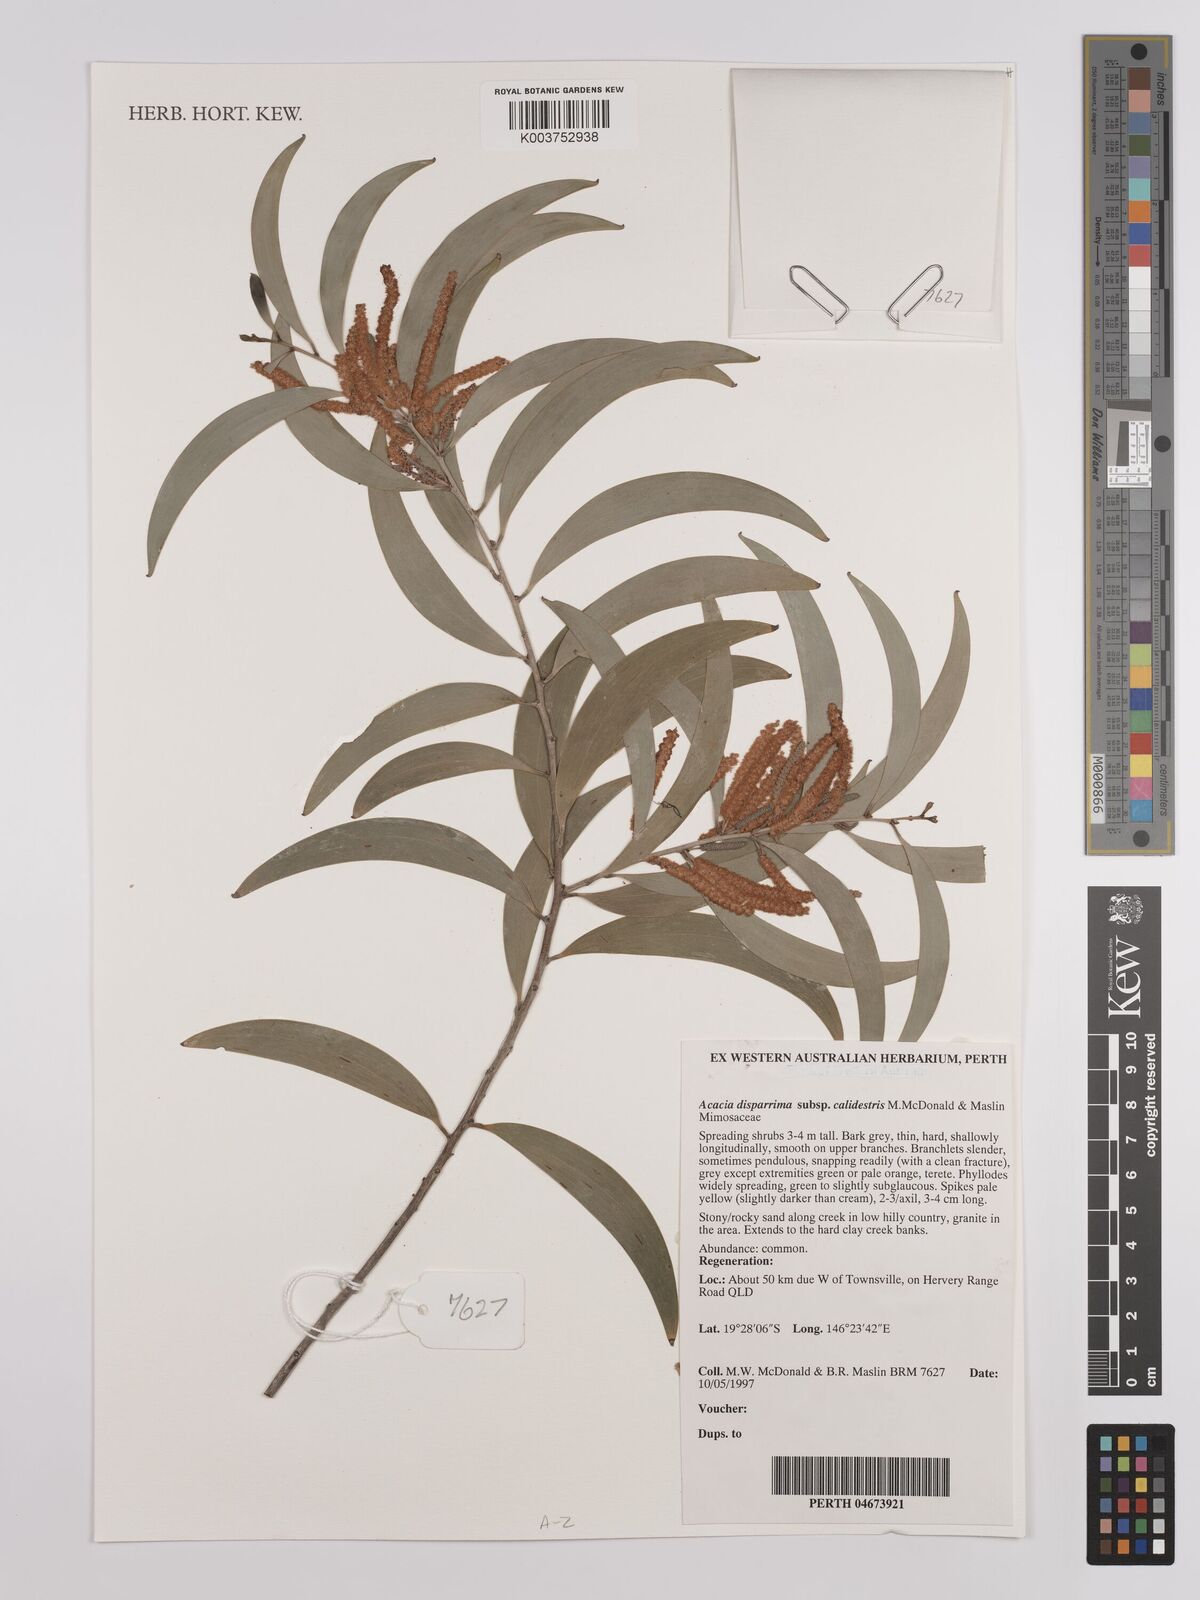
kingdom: Plantae
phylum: Tracheophyta
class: Magnoliopsida
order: Fabales
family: Fabaceae
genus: Acacia
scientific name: Acacia disparrima
